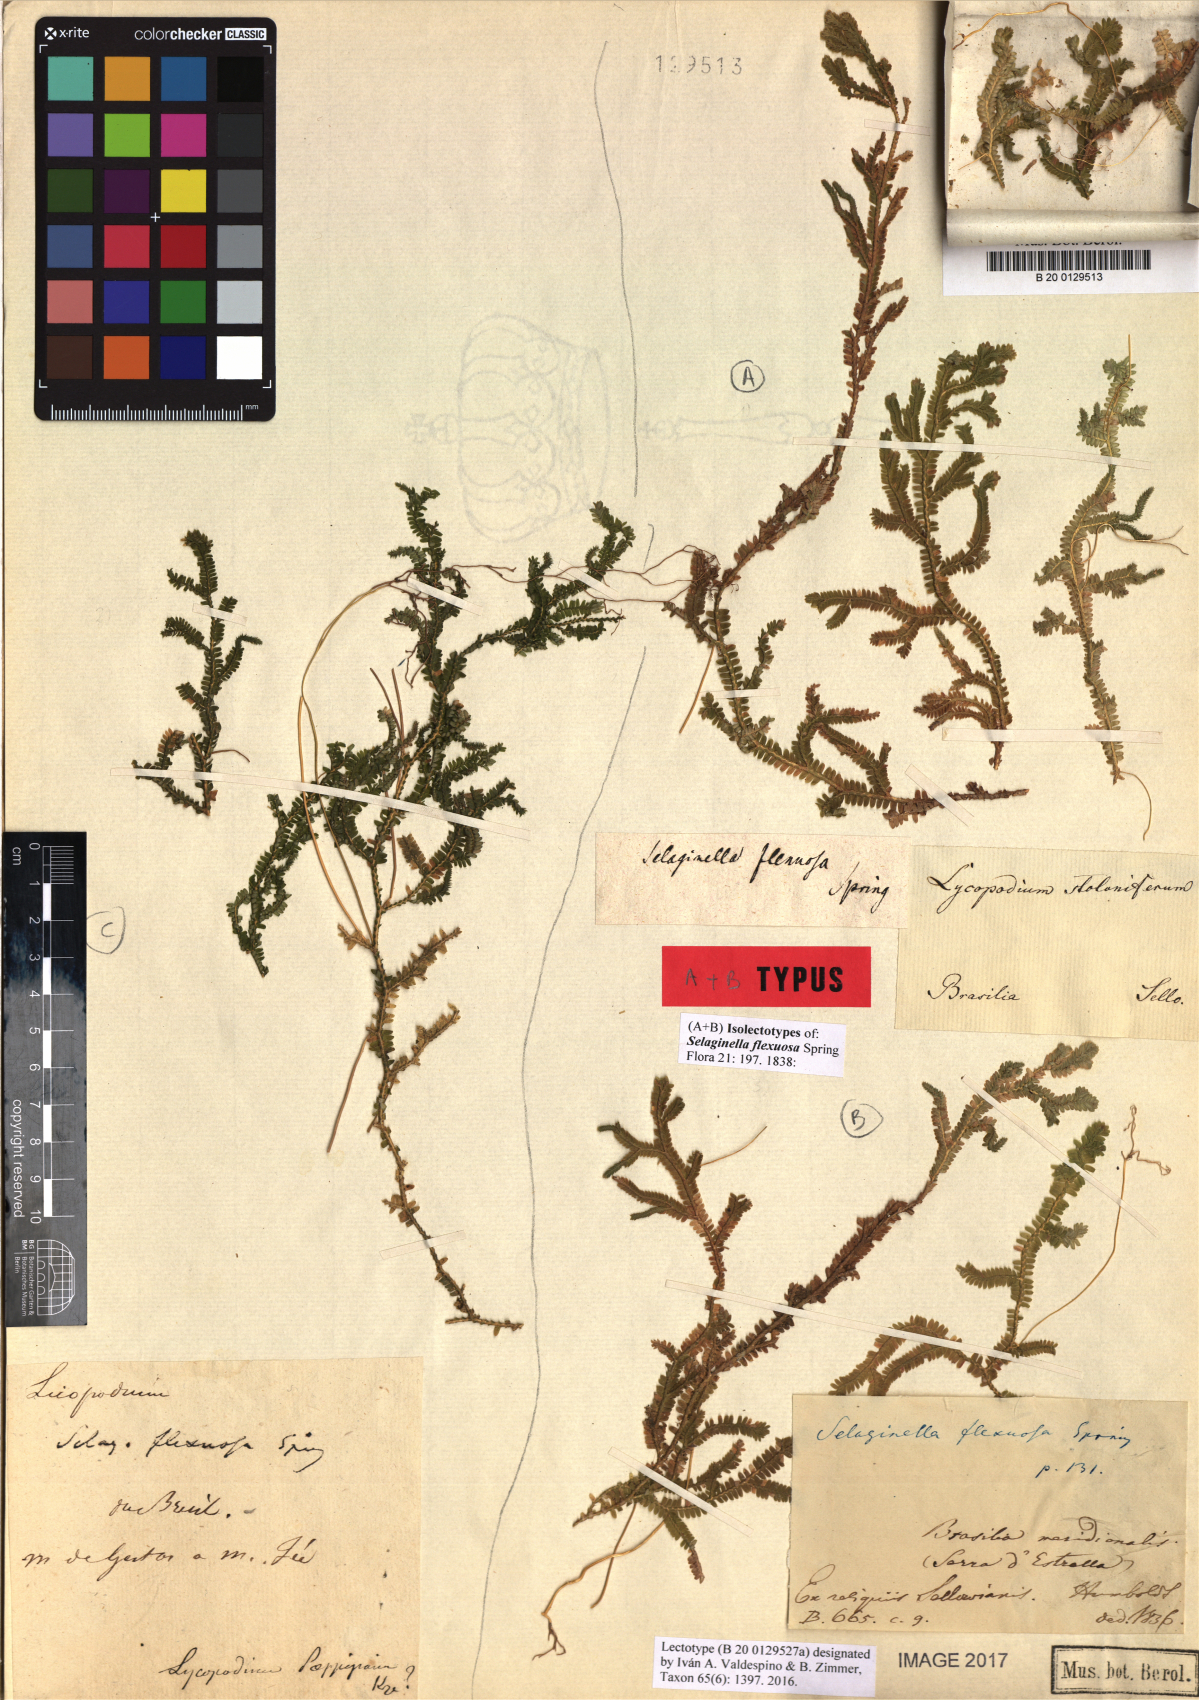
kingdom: Plantae
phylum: Tracheophyta
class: Lycopodiopsida
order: Selaginellales
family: Selaginellaceae
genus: Selaginella
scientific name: Selaginella flexuosa
